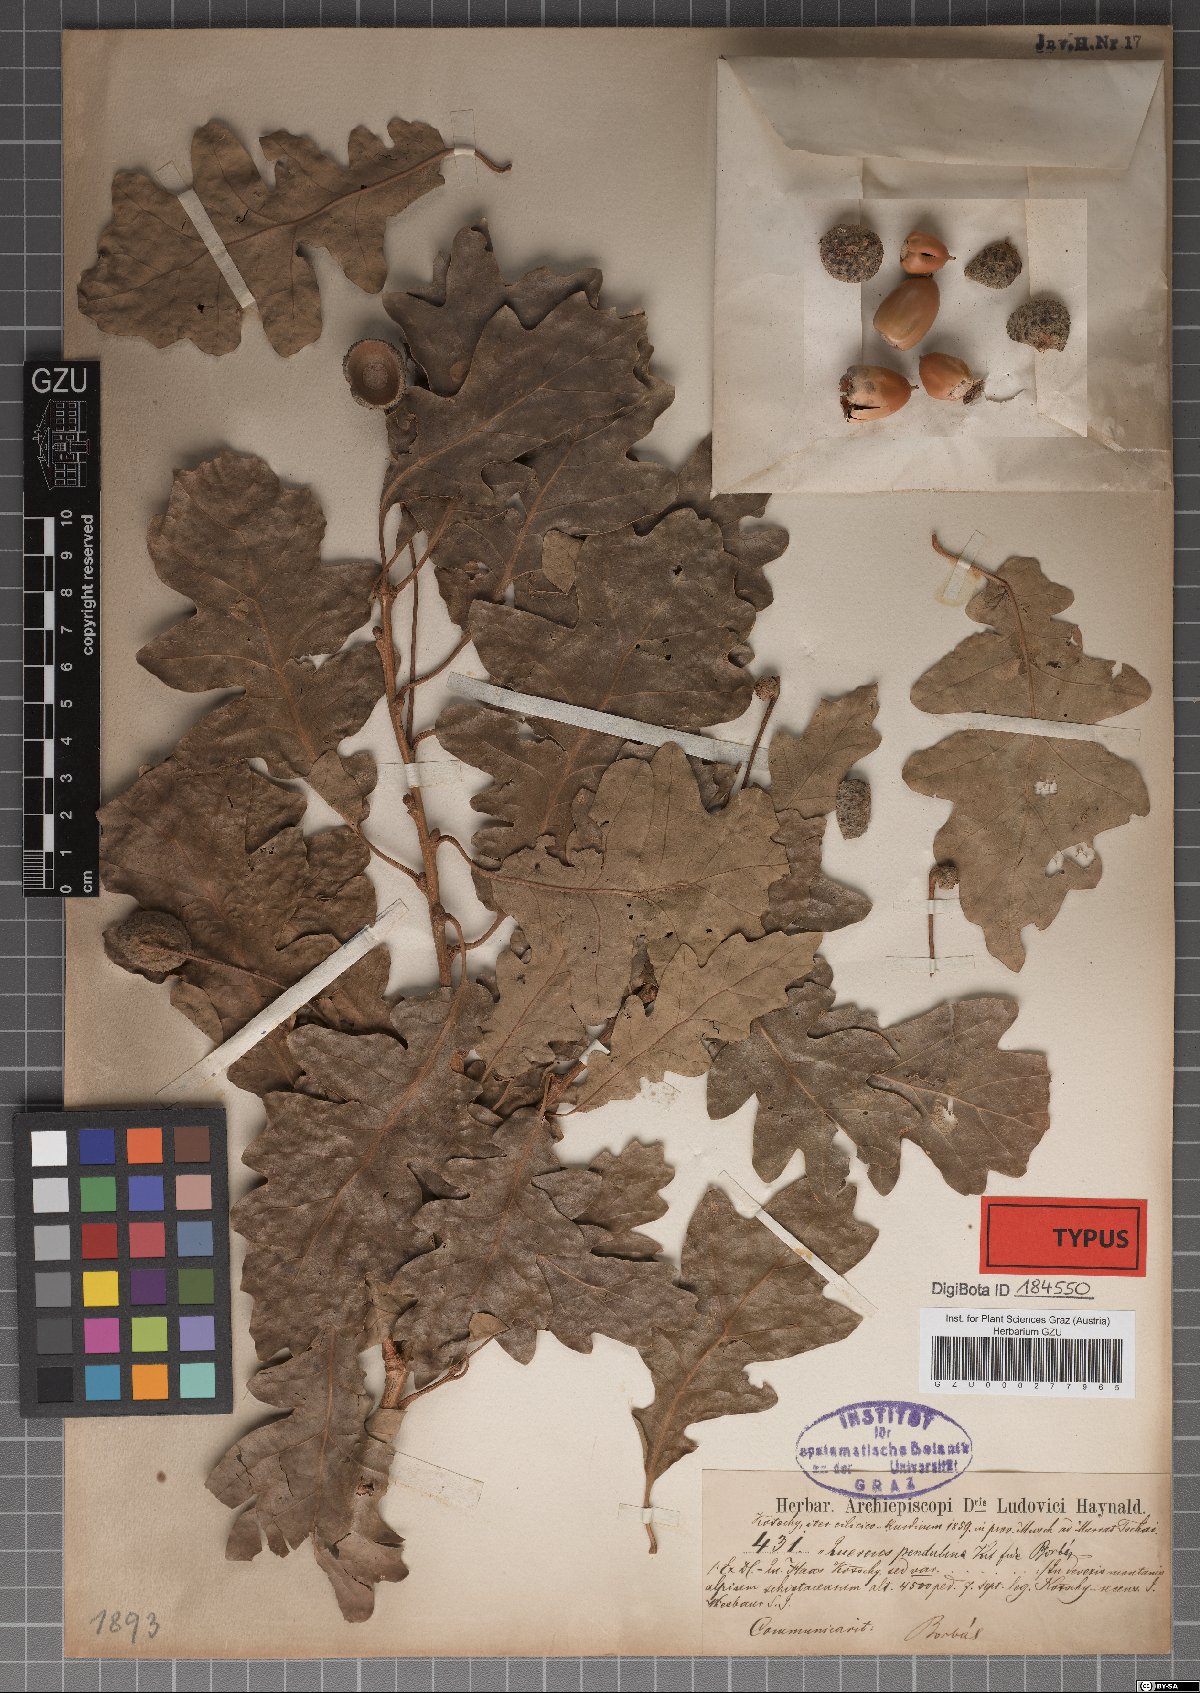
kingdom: Plantae
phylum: Tracheophyta
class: Magnoliopsida
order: Fagales
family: Fagaceae
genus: Quercus
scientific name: Quercus kerneri
